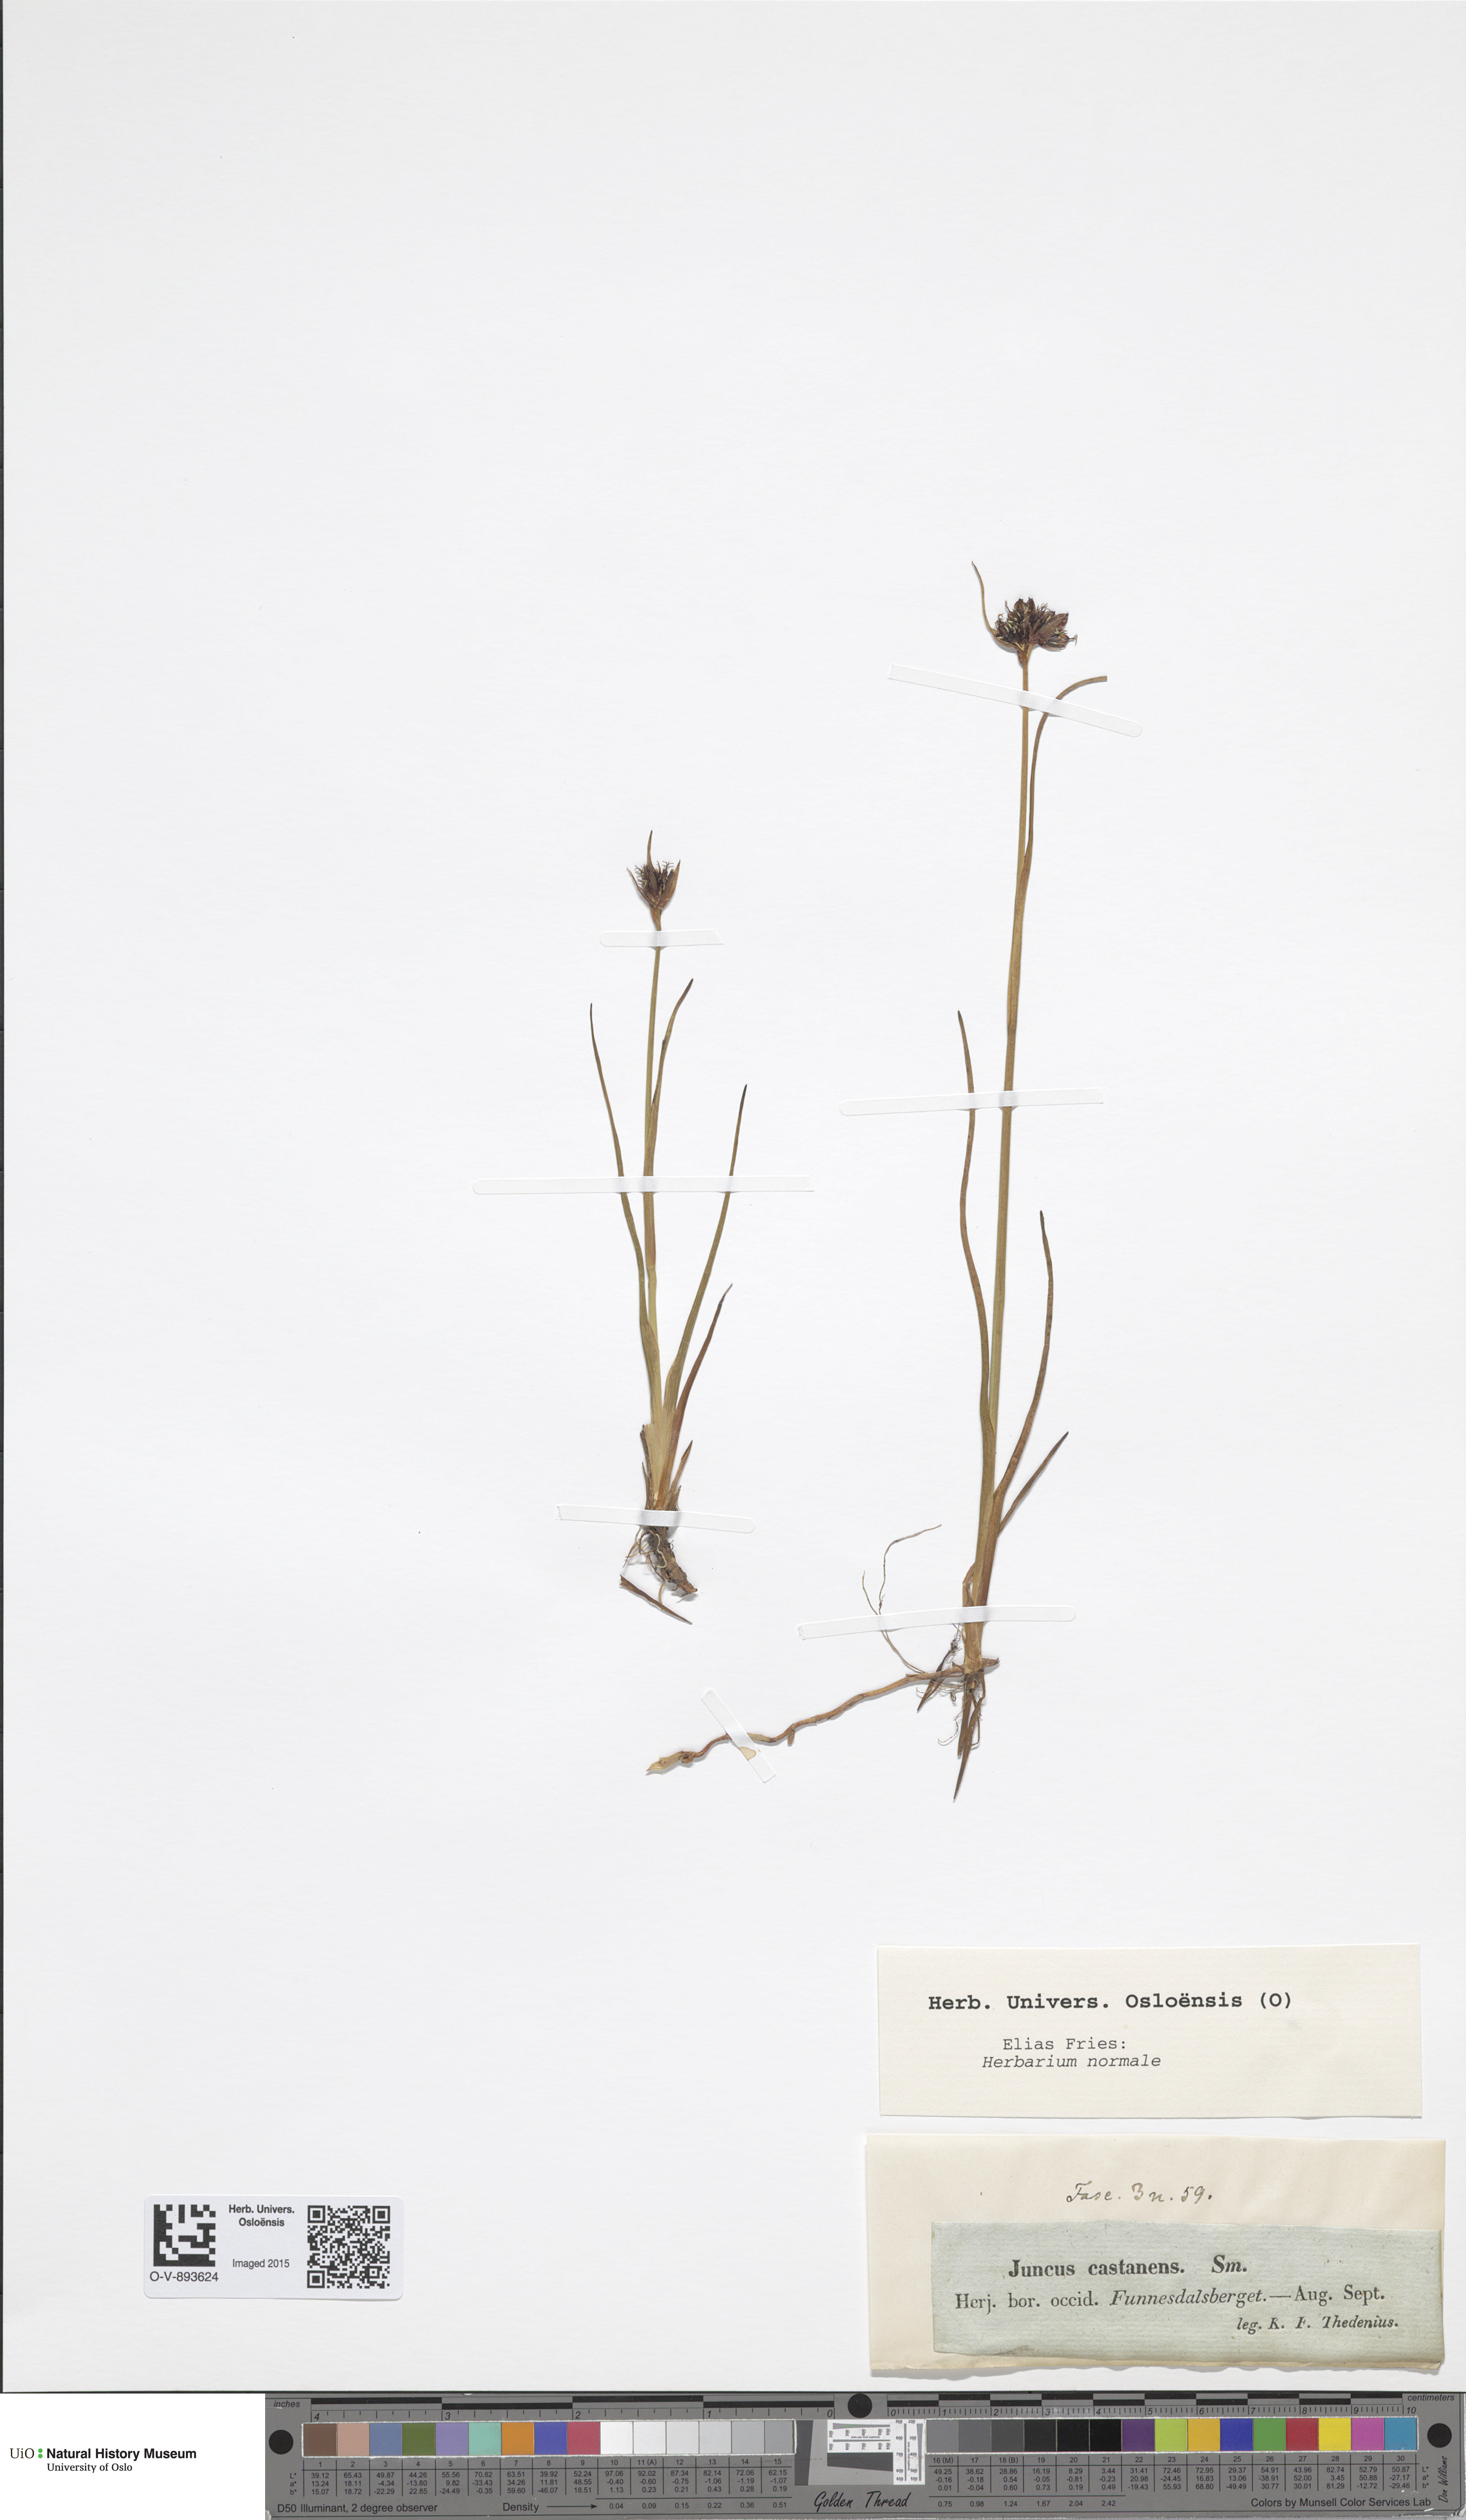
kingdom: Plantae
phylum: Tracheophyta
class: Liliopsida
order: Poales
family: Juncaceae
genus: Juncus
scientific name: Juncus castaneus
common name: Chestnut rush
